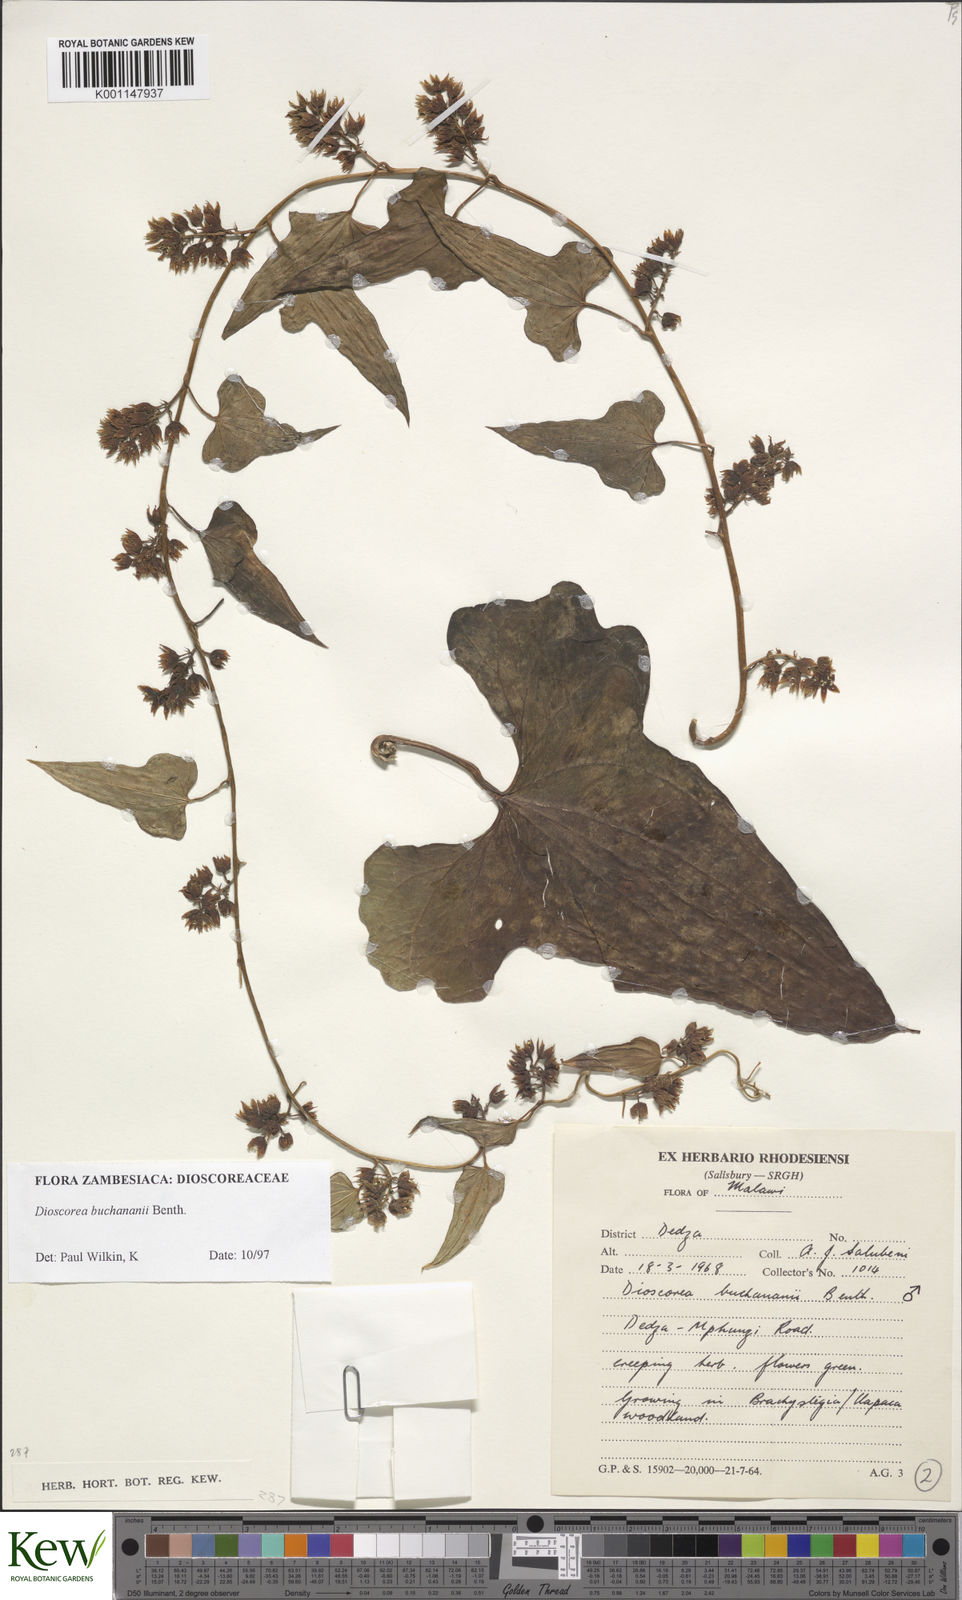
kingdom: Plantae
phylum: Tracheophyta
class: Liliopsida
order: Dioscoreales
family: Dioscoreaceae
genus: Dioscorea
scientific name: Dioscorea buchananii
